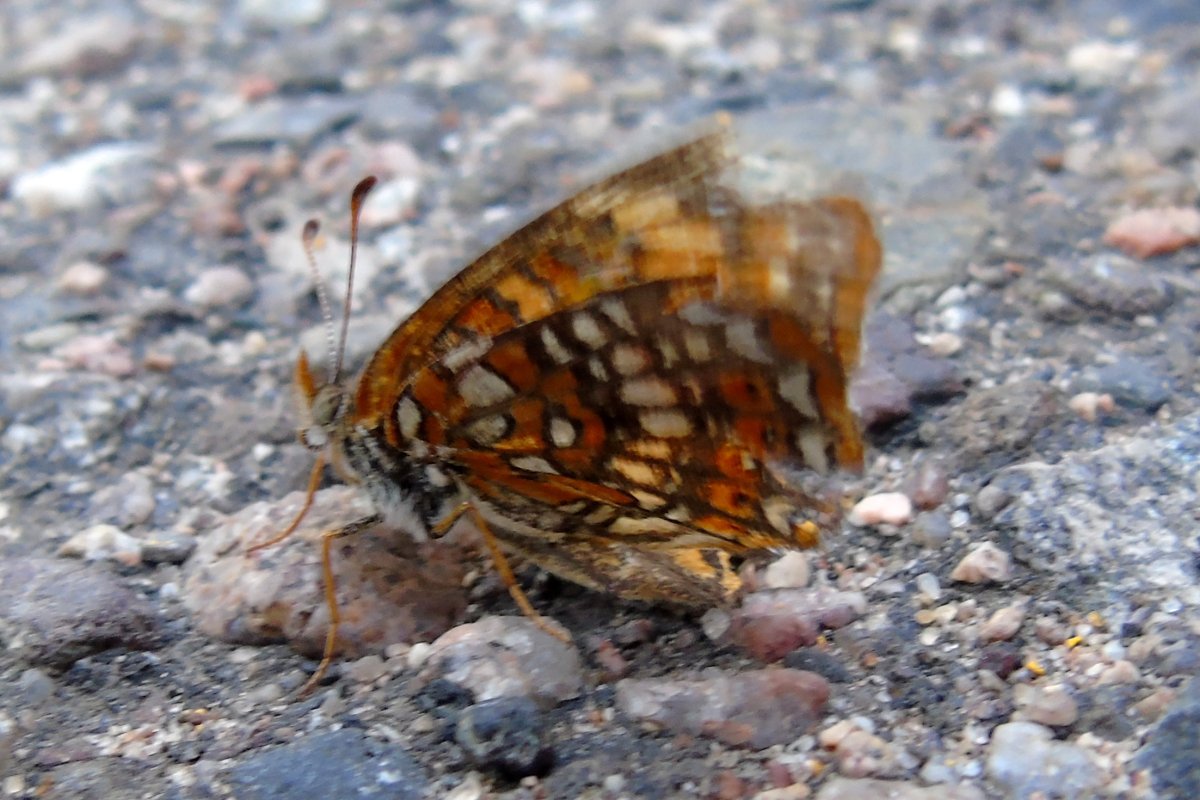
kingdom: Animalia
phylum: Arthropoda
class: Insecta
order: Lepidoptera
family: Nymphalidae
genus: Chlosyne
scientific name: Chlosyne harrisii
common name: Harris's Checkerspot
